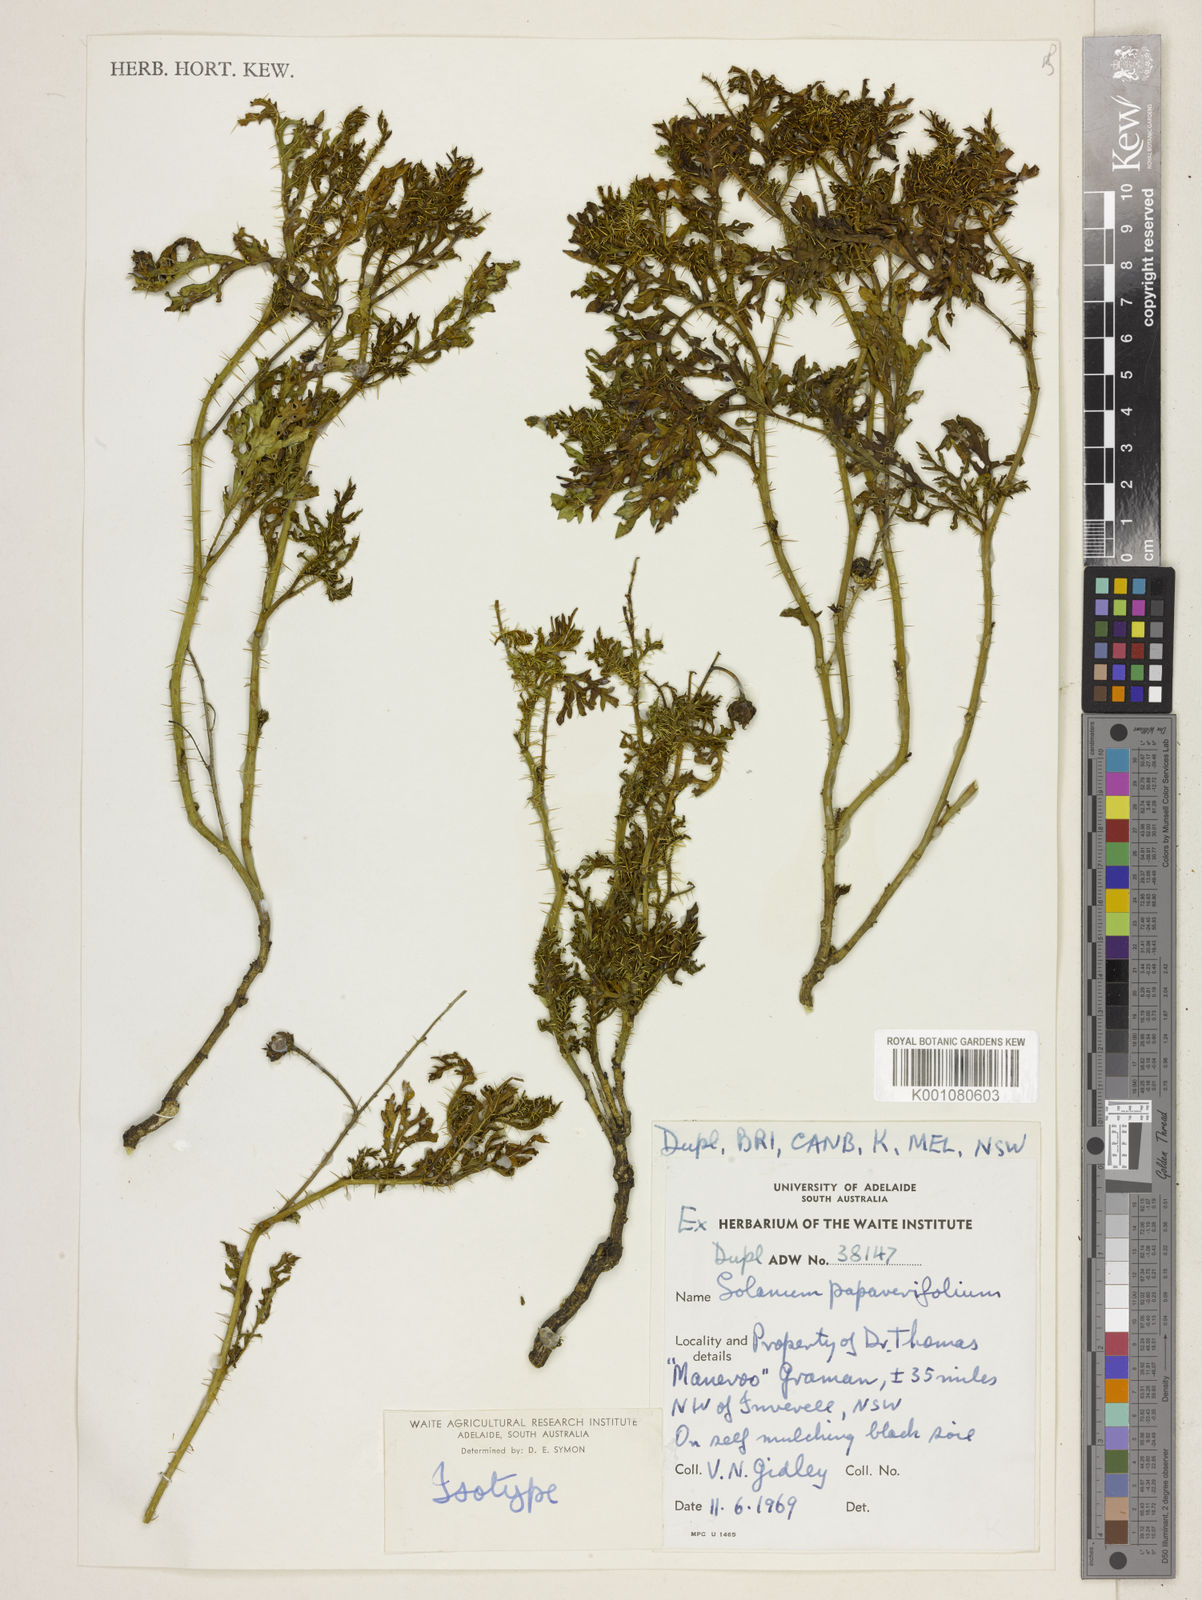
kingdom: Plantae
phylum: Tracheophyta
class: Magnoliopsida
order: Solanales
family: Solanaceae
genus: Solanum
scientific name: Solanum papaverifolium
